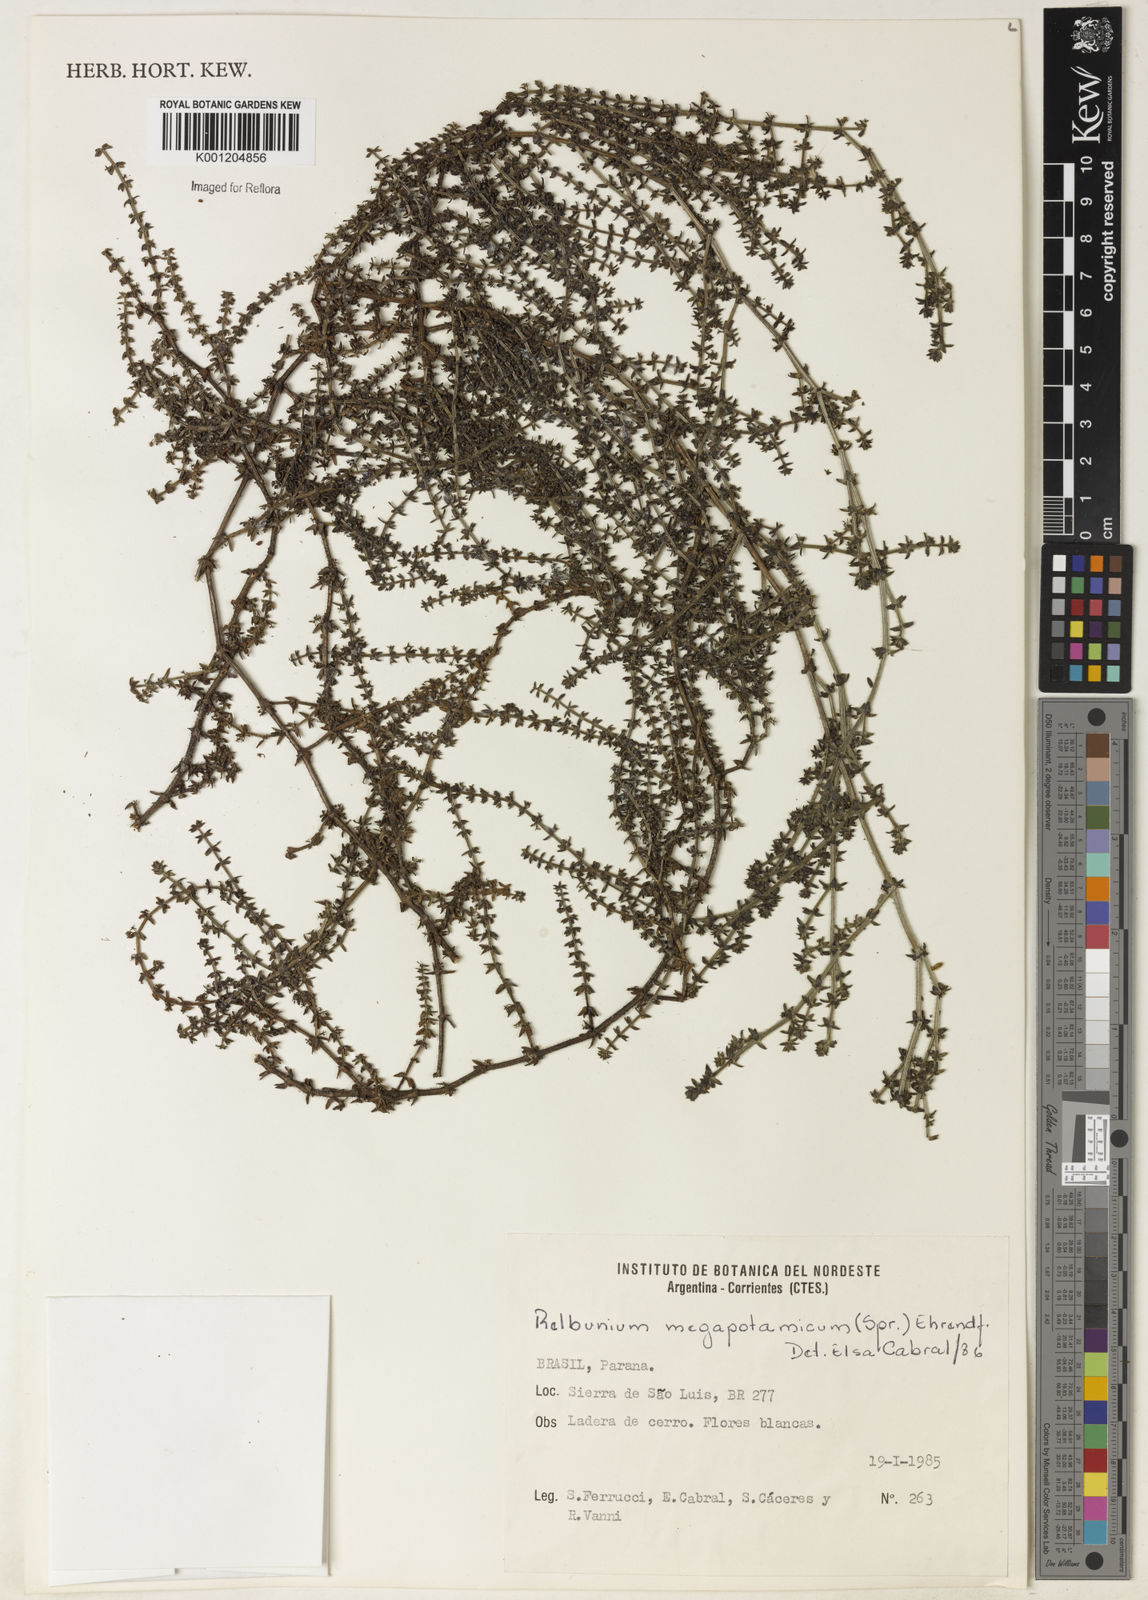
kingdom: Plantae
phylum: Tracheophyta
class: Magnoliopsida
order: Gentianales
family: Rubiaceae
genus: Galium
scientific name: Galium megapotamicum
